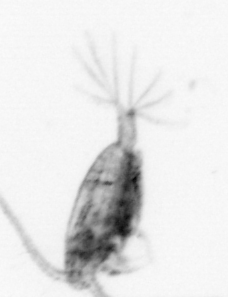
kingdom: Animalia
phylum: Arthropoda
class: Copepoda
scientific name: Copepoda
